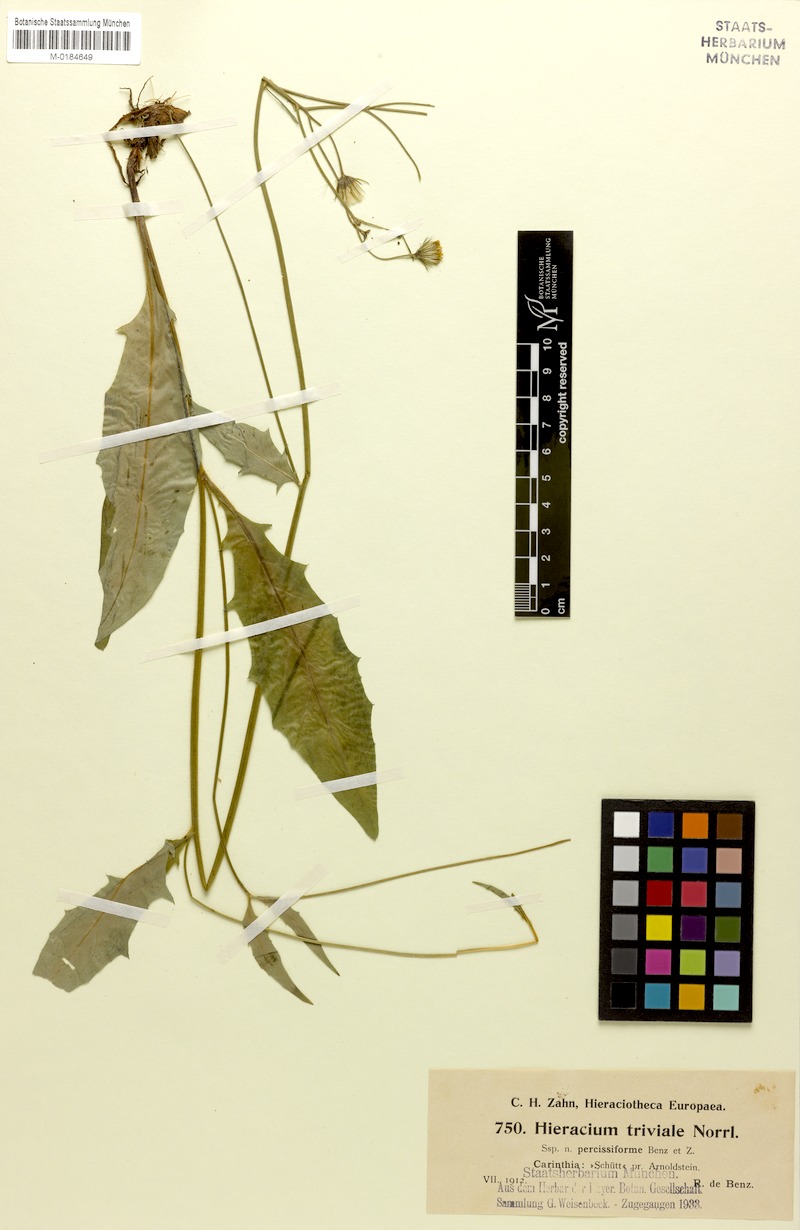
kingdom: Plantae
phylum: Tracheophyta
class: Magnoliopsida
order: Asterales
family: Asteraceae
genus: Hieracium
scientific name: Hieracium levicaule
